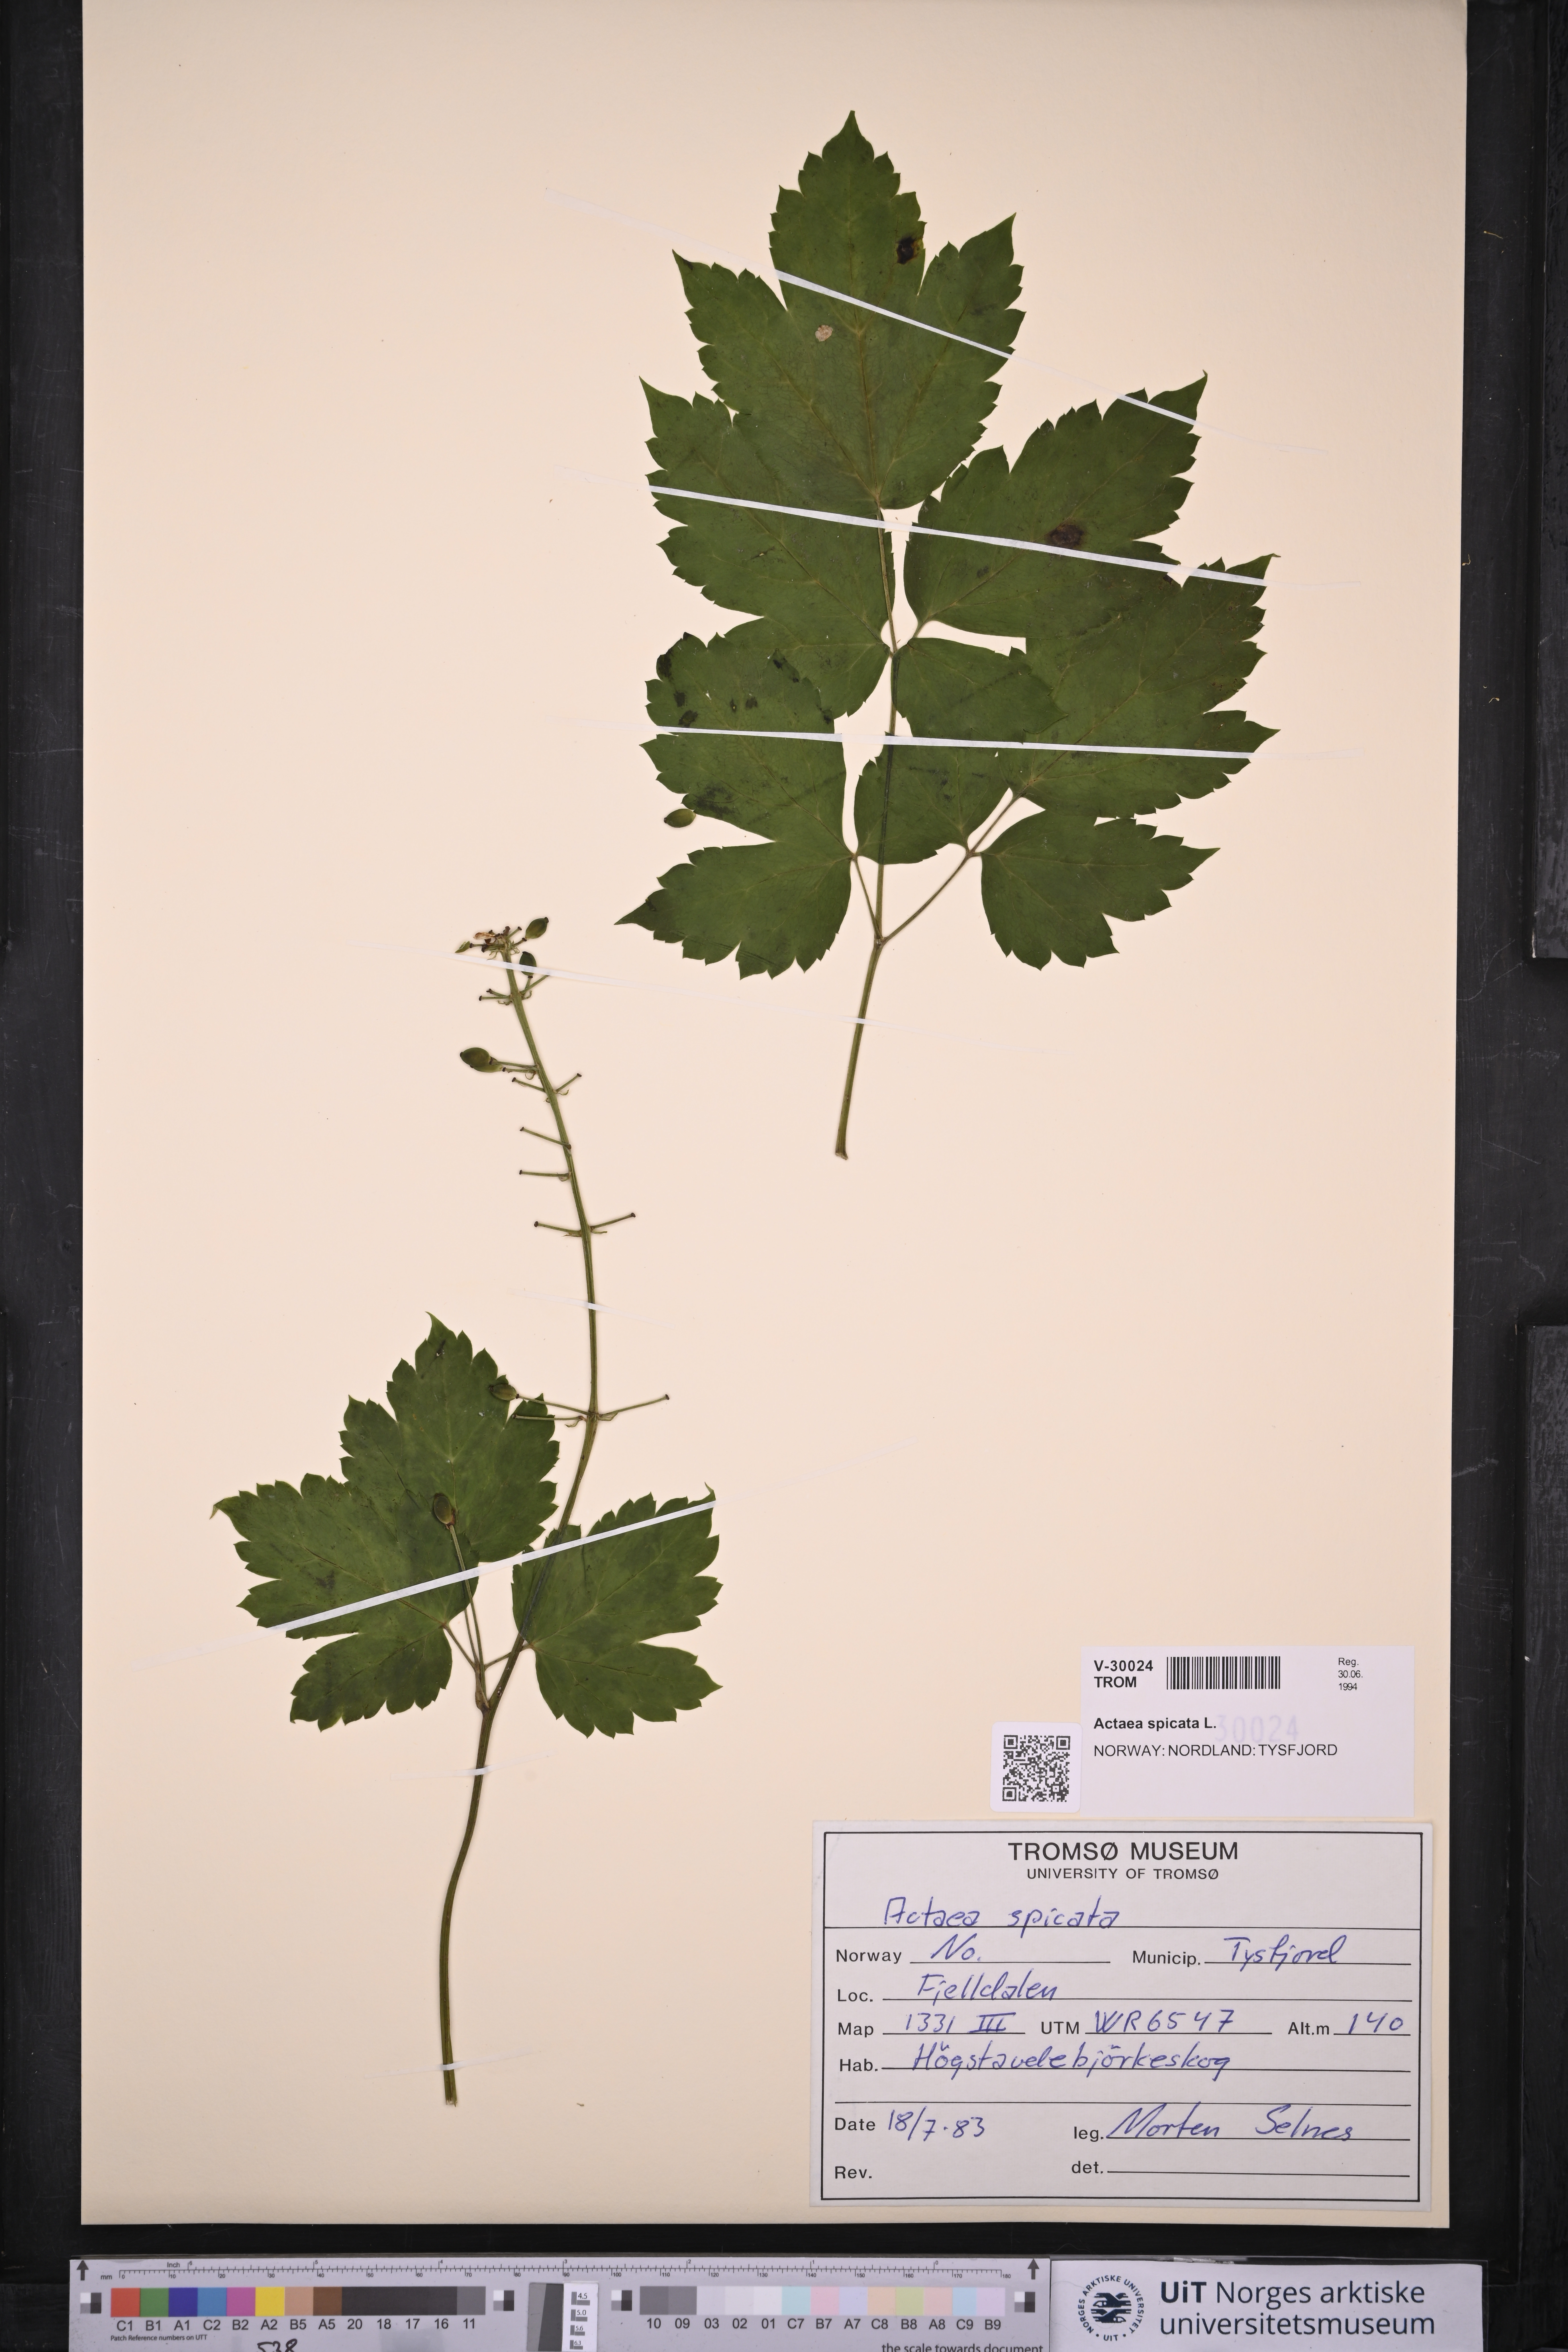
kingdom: Plantae
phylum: Tracheophyta
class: Magnoliopsida
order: Ranunculales
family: Ranunculaceae
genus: Actaea
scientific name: Actaea spicata
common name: Baneberry
